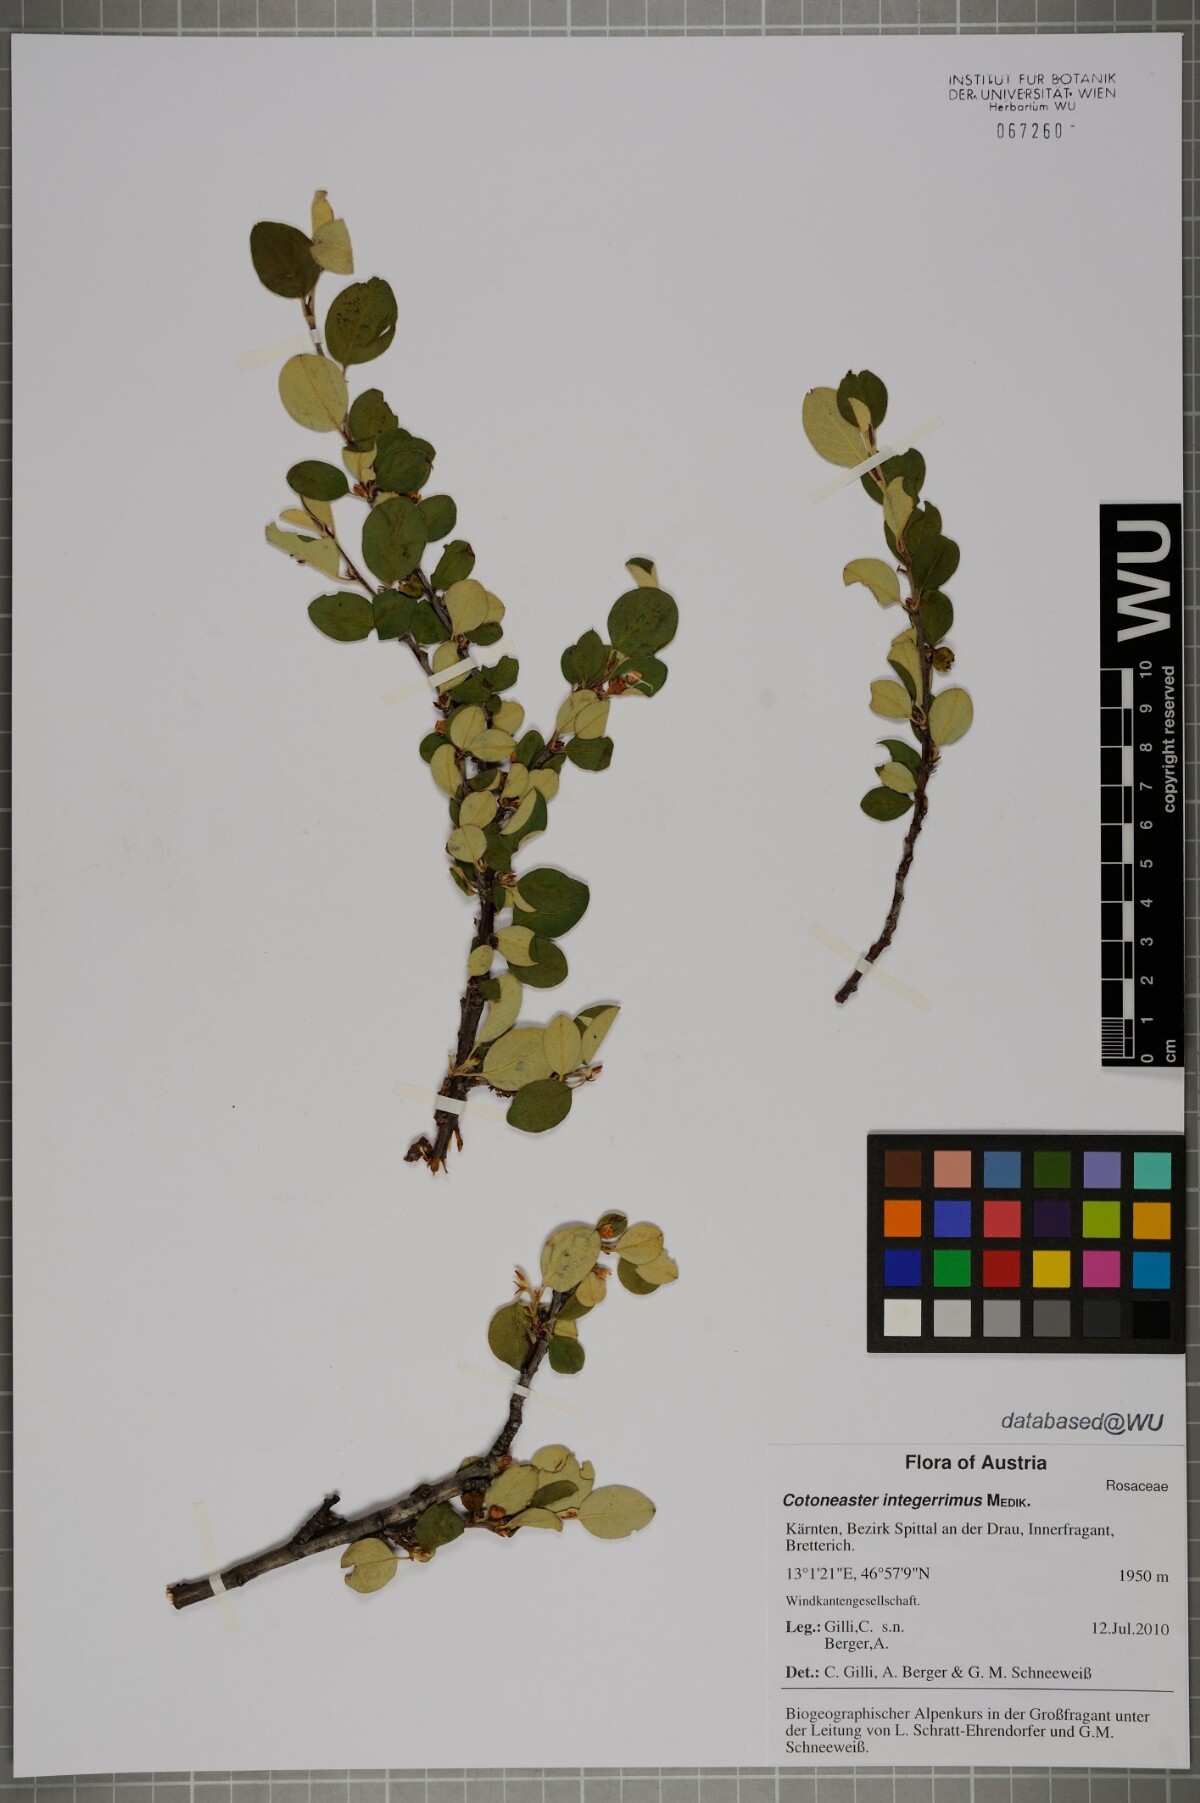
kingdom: Plantae
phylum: Tracheophyta
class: Magnoliopsida
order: Rosales
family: Rosaceae
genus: Cotoneaster
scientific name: Cotoneaster integerrimus
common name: Wild cotoneaster
